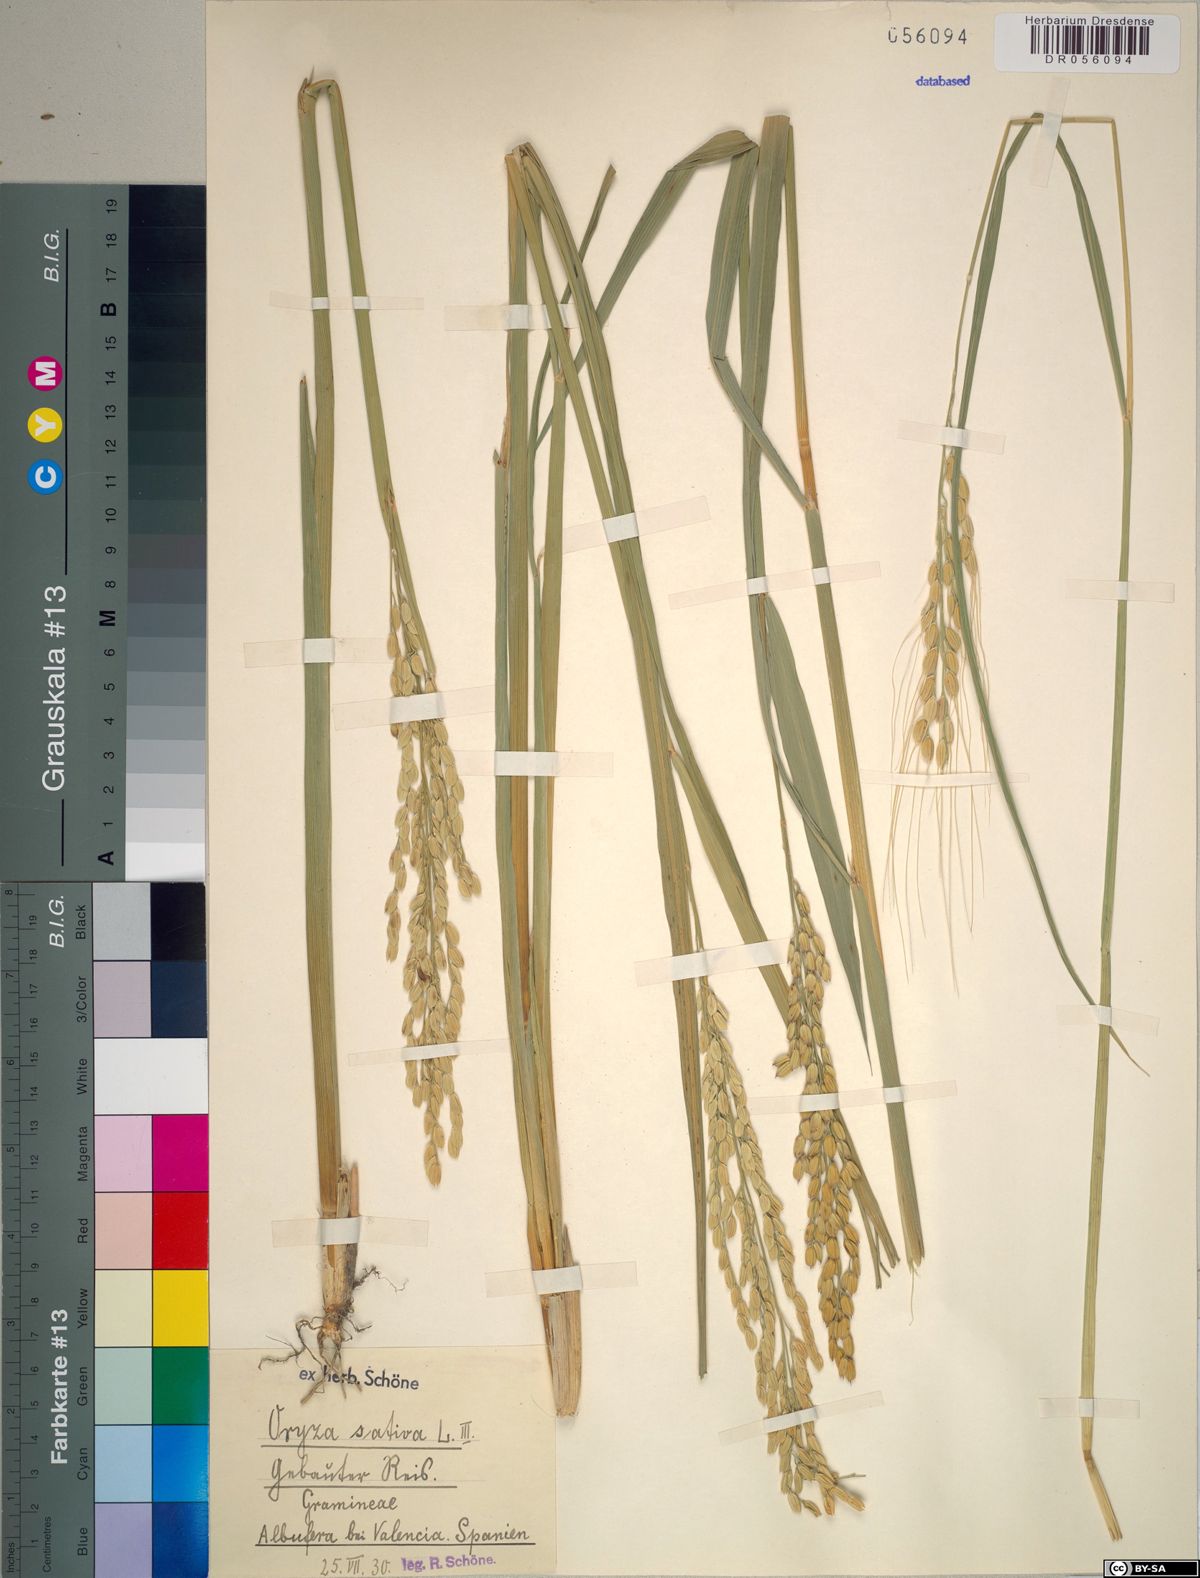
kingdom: Plantae
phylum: Tracheophyta
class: Liliopsida
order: Poales
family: Poaceae
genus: Oryza
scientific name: Oryza sativa
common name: Rice
